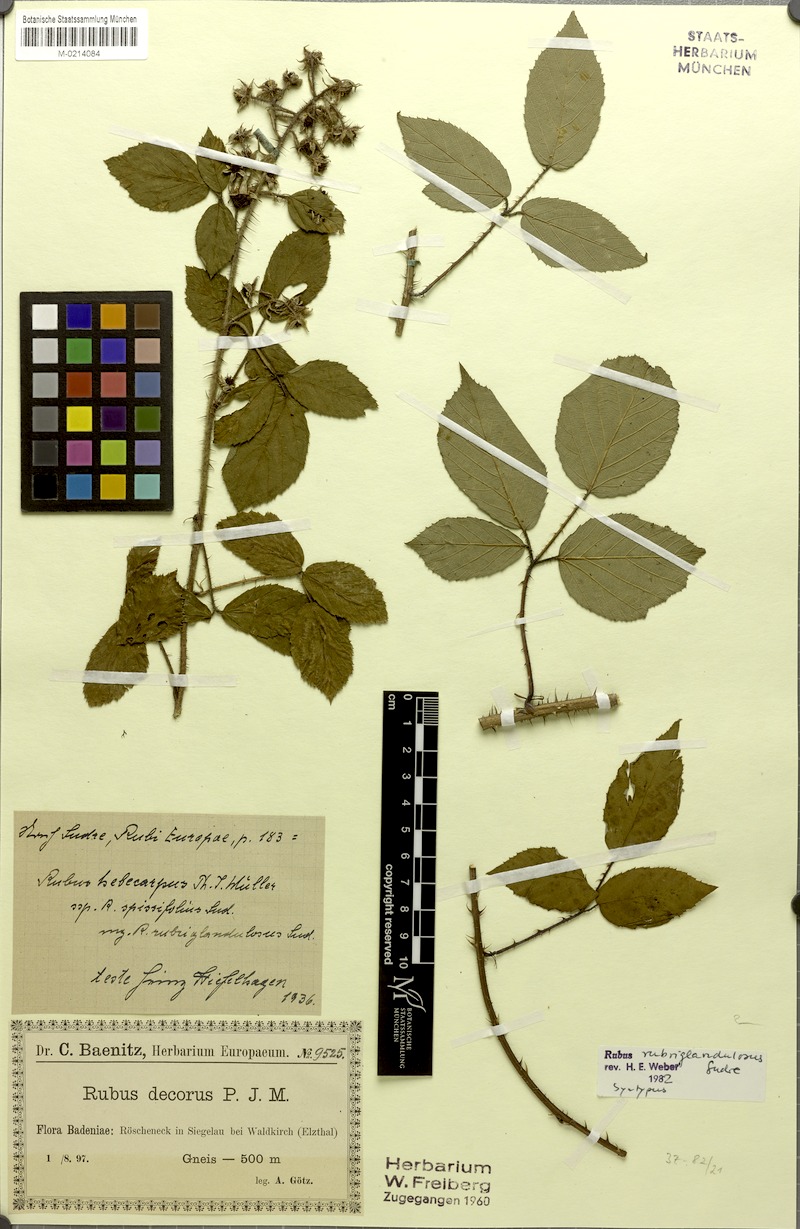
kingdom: Plantae
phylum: Tracheophyta
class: Magnoliopsida
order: Rosales
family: Rosaceae
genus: Rubus
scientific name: Rubus hebecarpos
